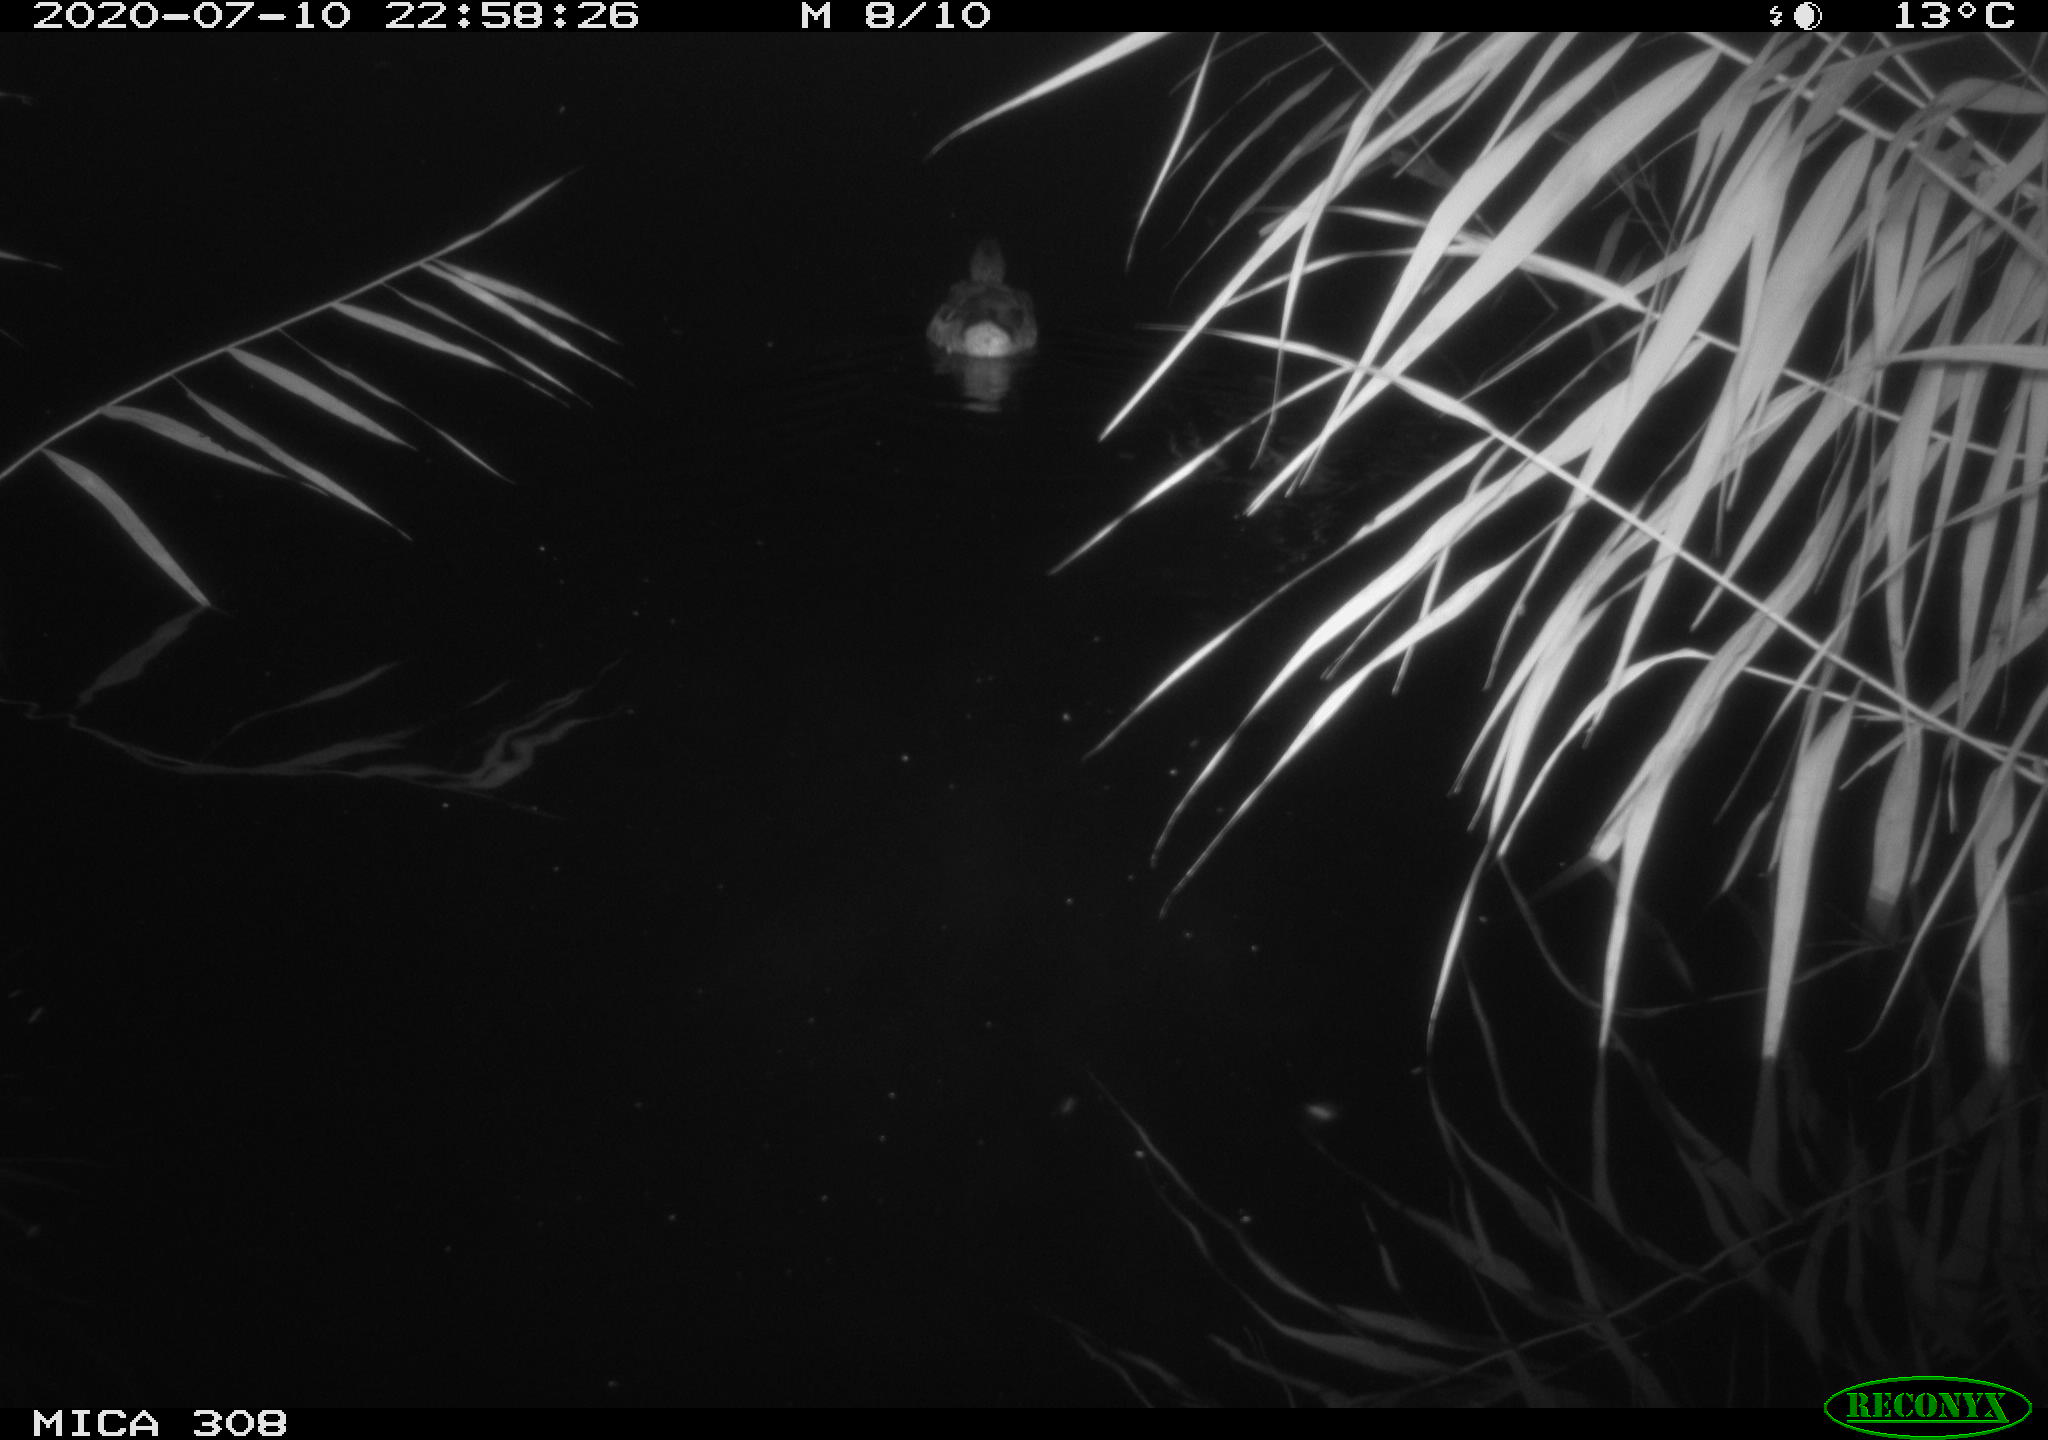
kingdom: Animalia
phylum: Chordata
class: Aves
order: Anseriformes
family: Anatidae
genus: Anas
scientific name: Anas platyrhynchos
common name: Mallard
